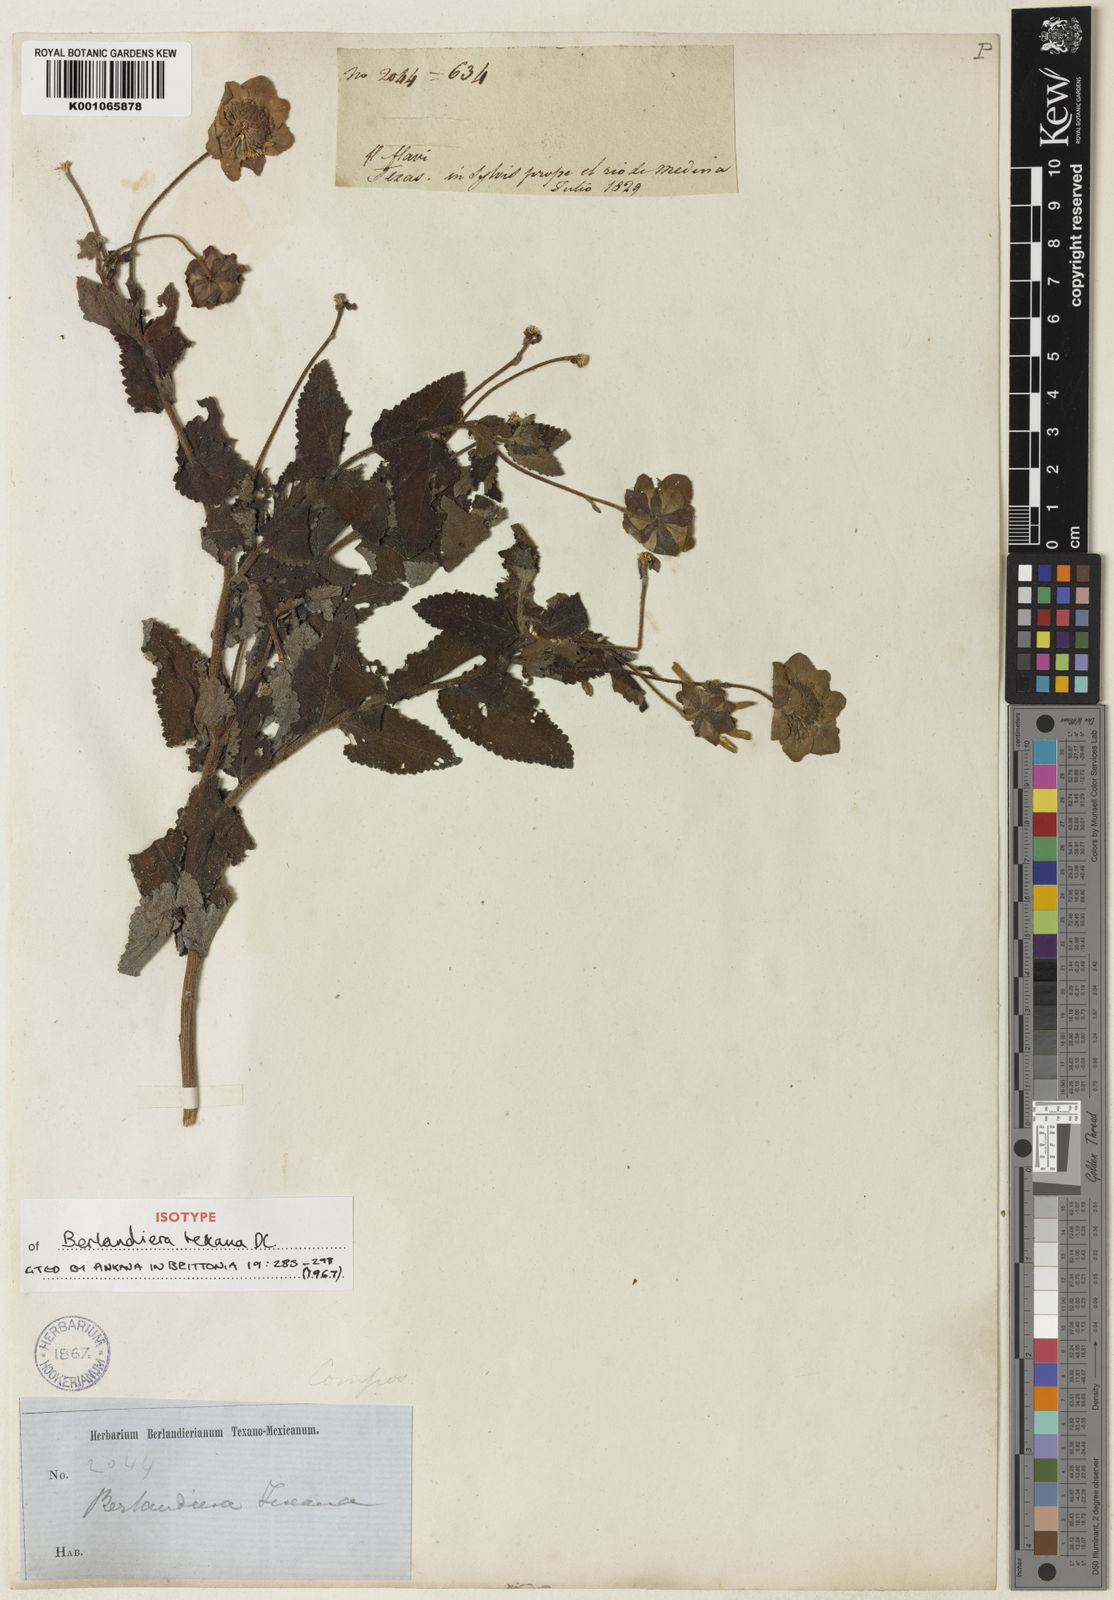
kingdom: Plantae
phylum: Tracheophyta
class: Magnoliopsida
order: Asterales
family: Asteraceae
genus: Berlandiera
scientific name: Berlandiera texana
